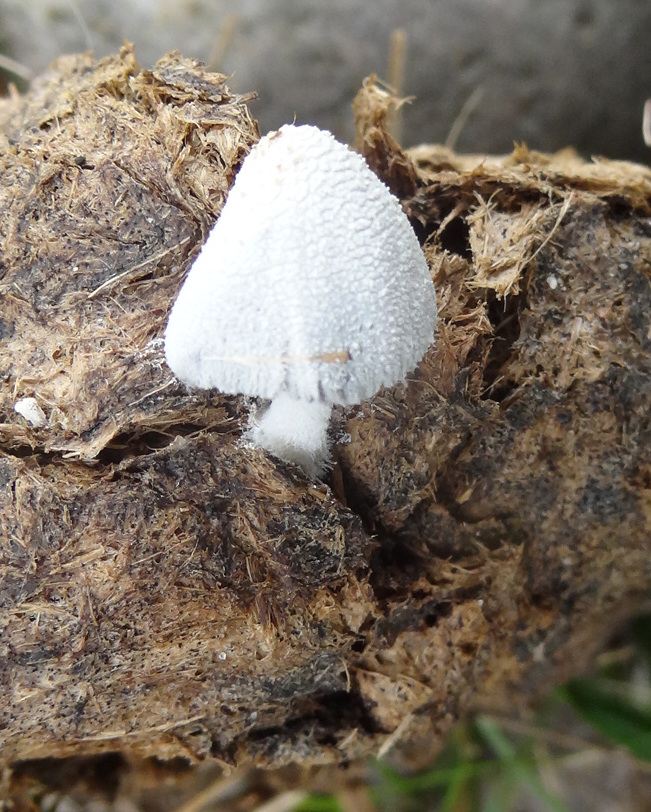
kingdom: Fungi
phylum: Basidiomycota
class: Agaricomycetes
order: Agaricales
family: Psathyrellaceae
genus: Coprinopsis
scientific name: Coprinopsis nivea
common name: snehvid blækhat
